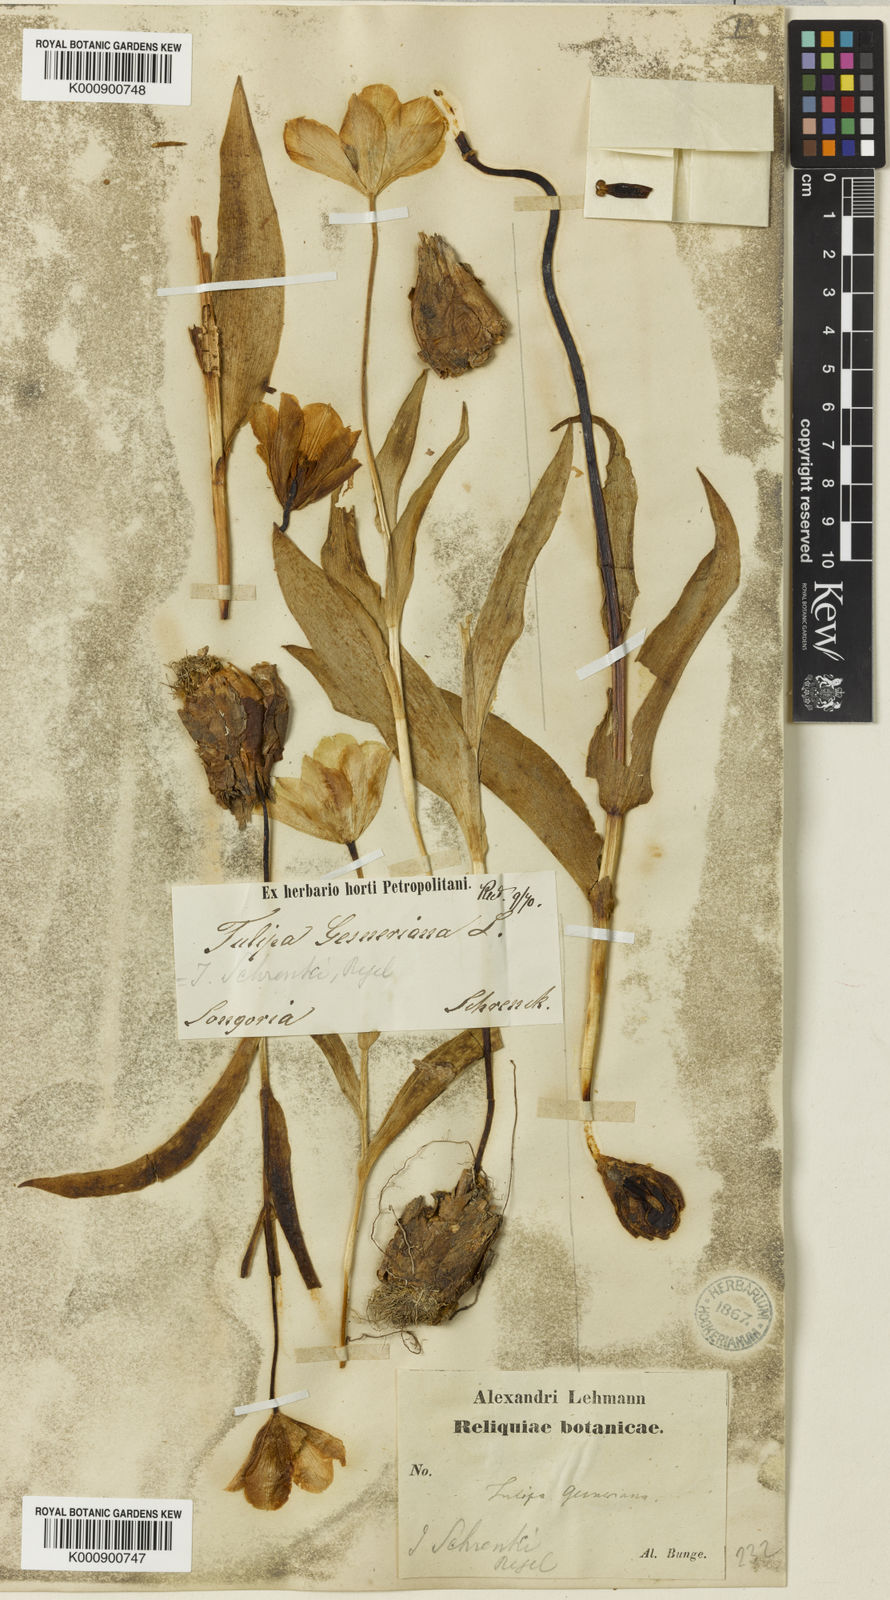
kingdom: Plantae
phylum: Tracheophyta
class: Liliopsida
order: Liliales
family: Liliaceae
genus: Tulipa
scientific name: Tulipa suaveolens
